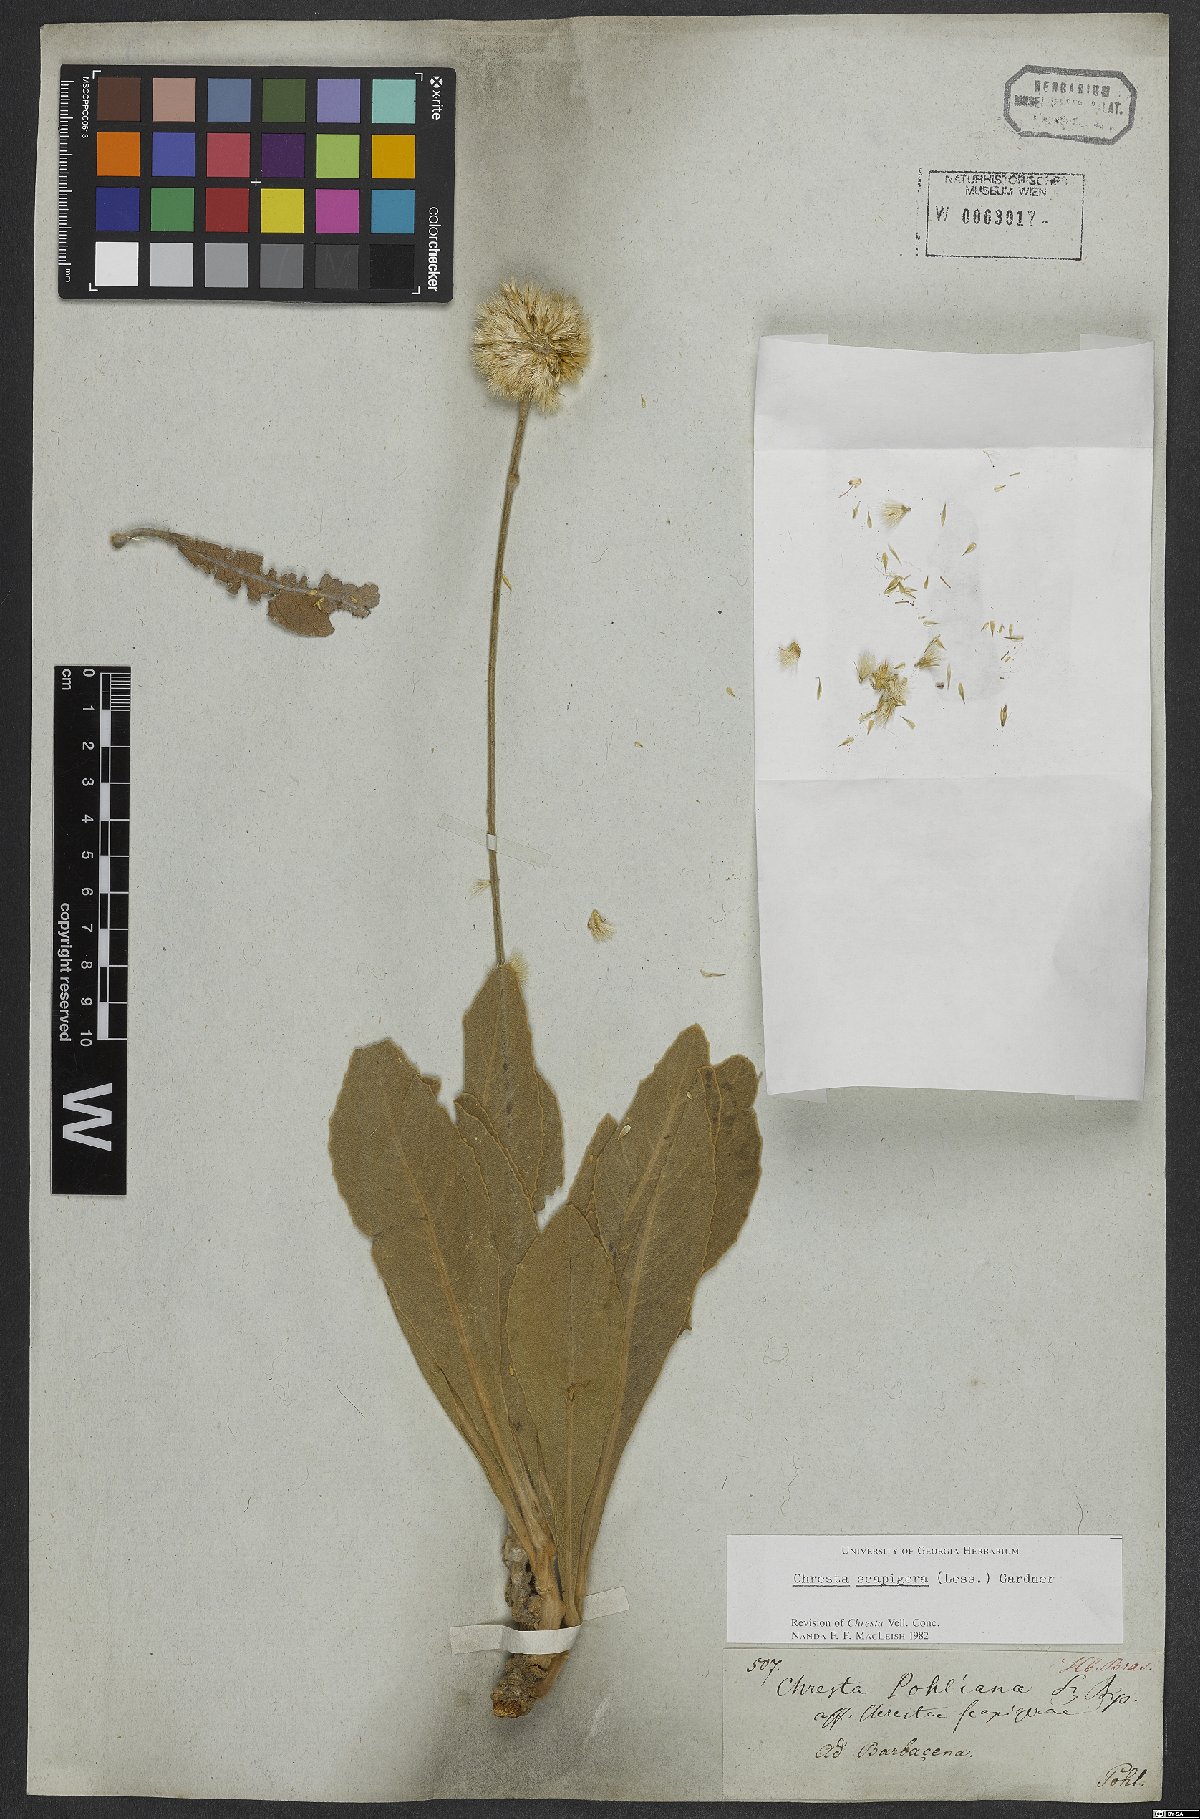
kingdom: Plantae
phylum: Tracheophyta
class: Magnoliopsida
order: Asterales
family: Asteraceae
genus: Chresta
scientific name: Chresta scapigera
